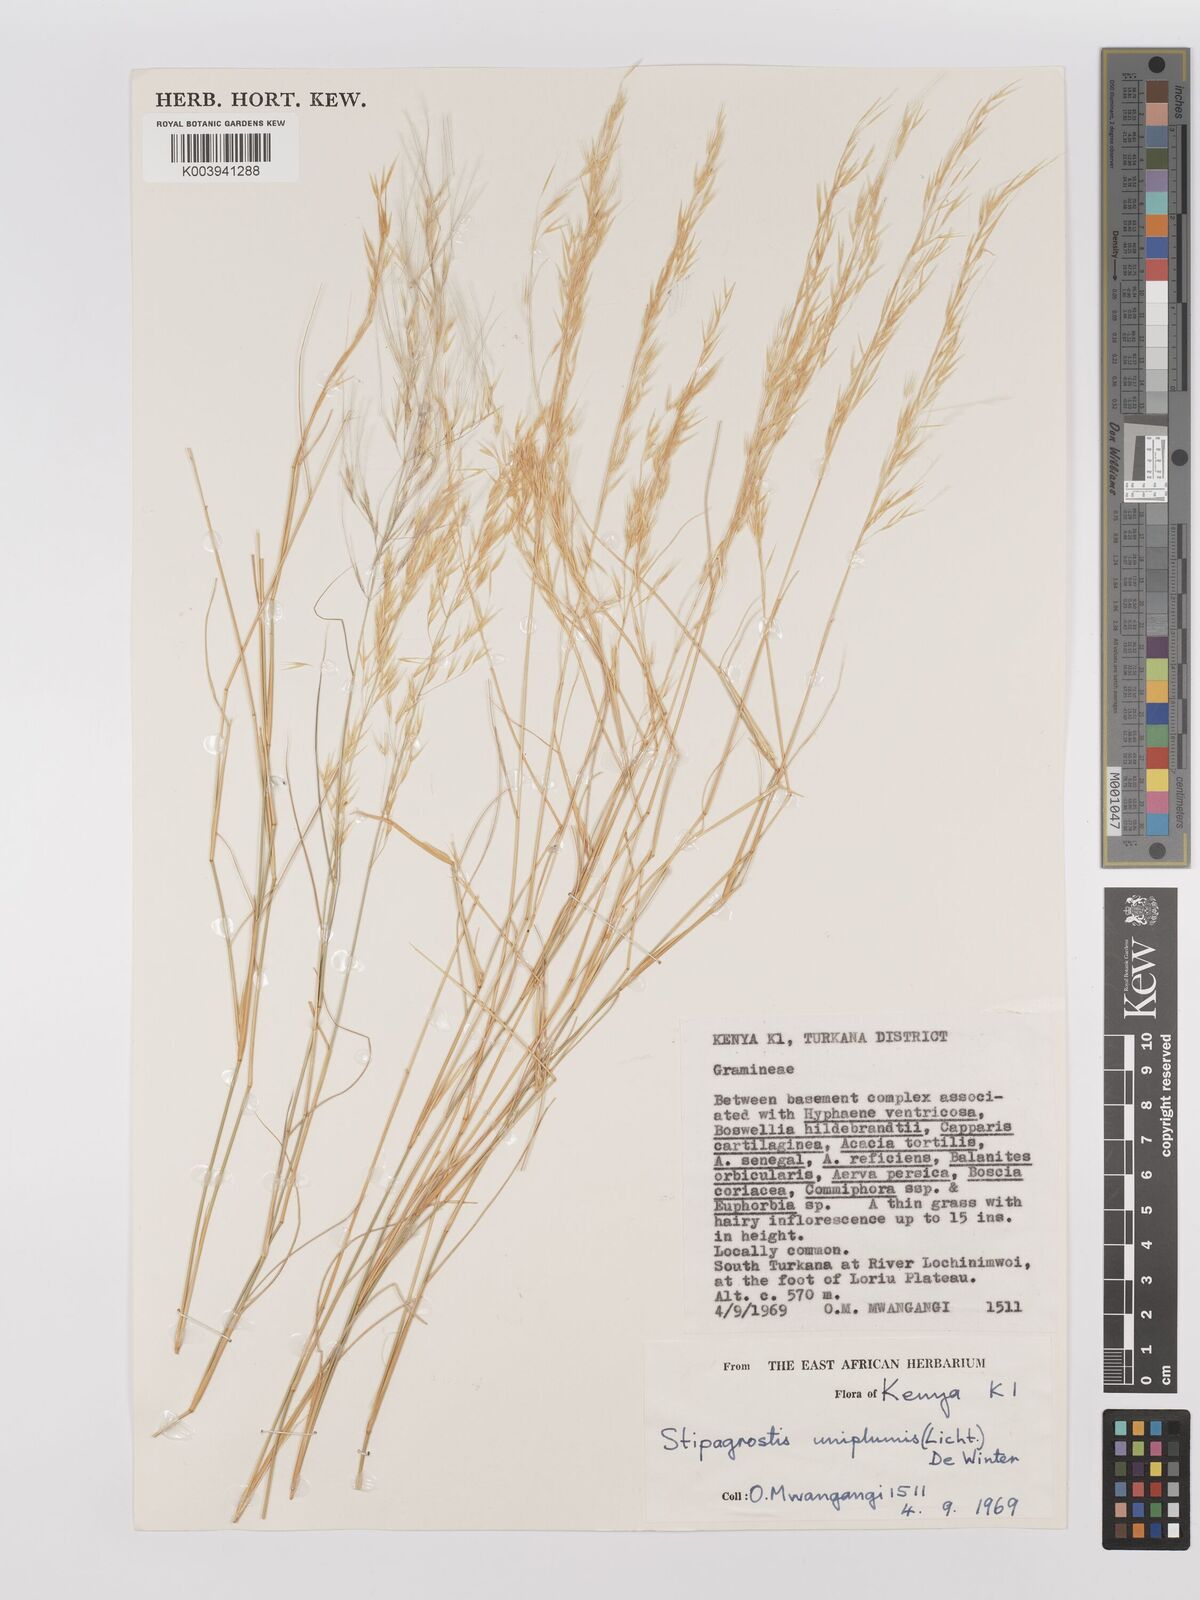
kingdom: Plantae
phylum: Tracheophyta
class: Liliopsida
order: Poales
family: Poaceae
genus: Stipagrostis
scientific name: Stipagrostis uniplumis
